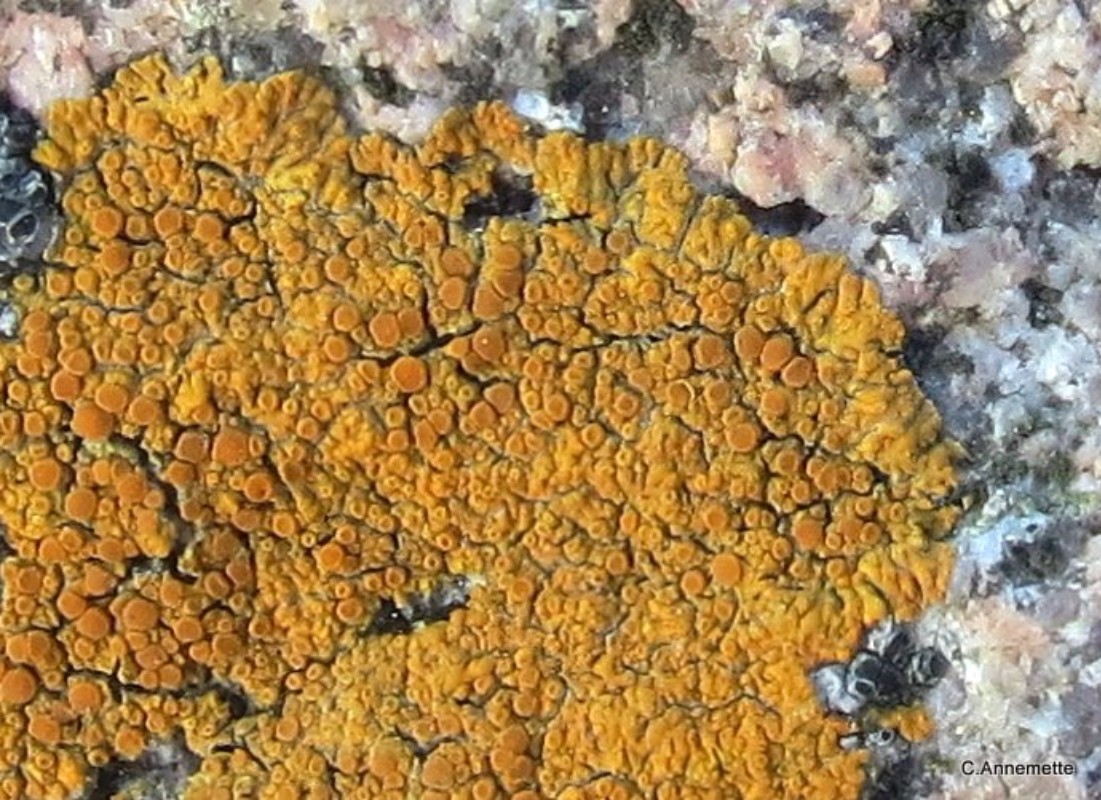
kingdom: Fungi
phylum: Ascomycota
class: Lecanoromycetes
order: Teloschistales
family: Teloschistaceae
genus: Athallia
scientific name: Athallia scopularis
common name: klippe-orangelav
